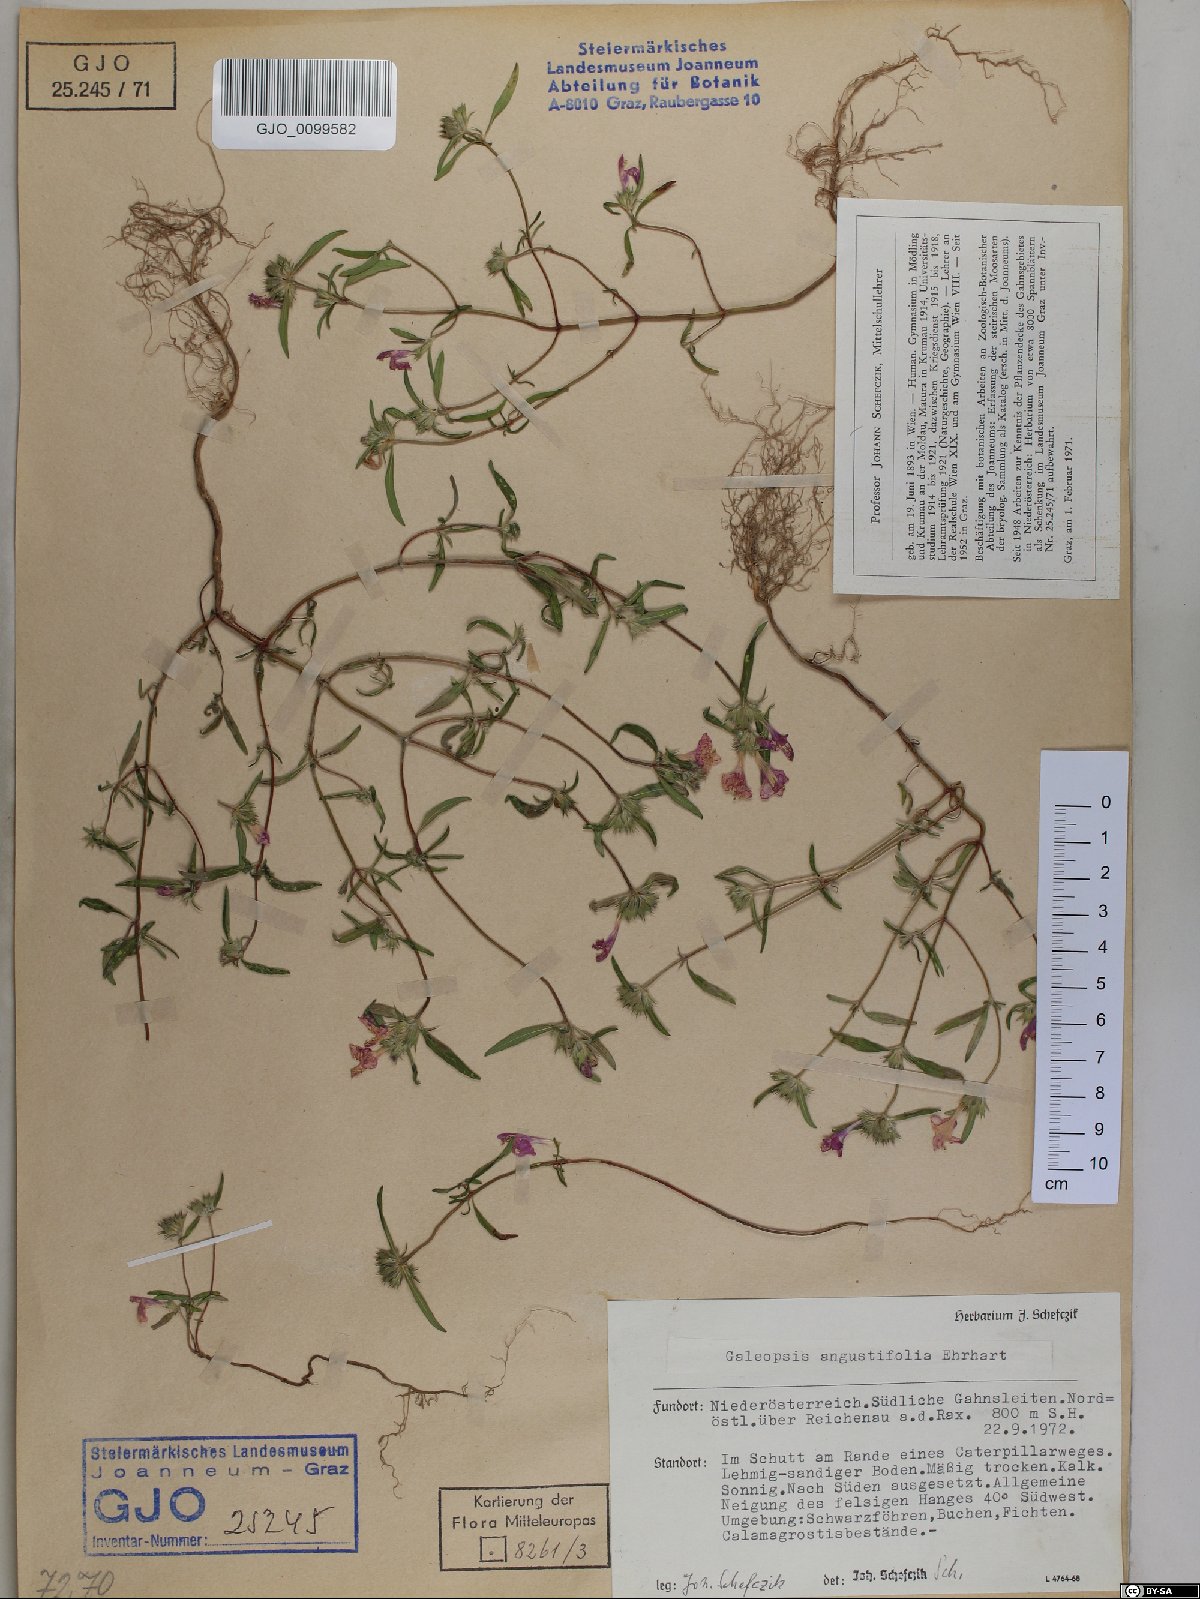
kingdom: Plantae
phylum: Tracheophyta
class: Magnoliopsida
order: Lamiales
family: Lamiaceae
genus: Galeopsis
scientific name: Galeopsis angustifolia
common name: Red hemp-nettle
